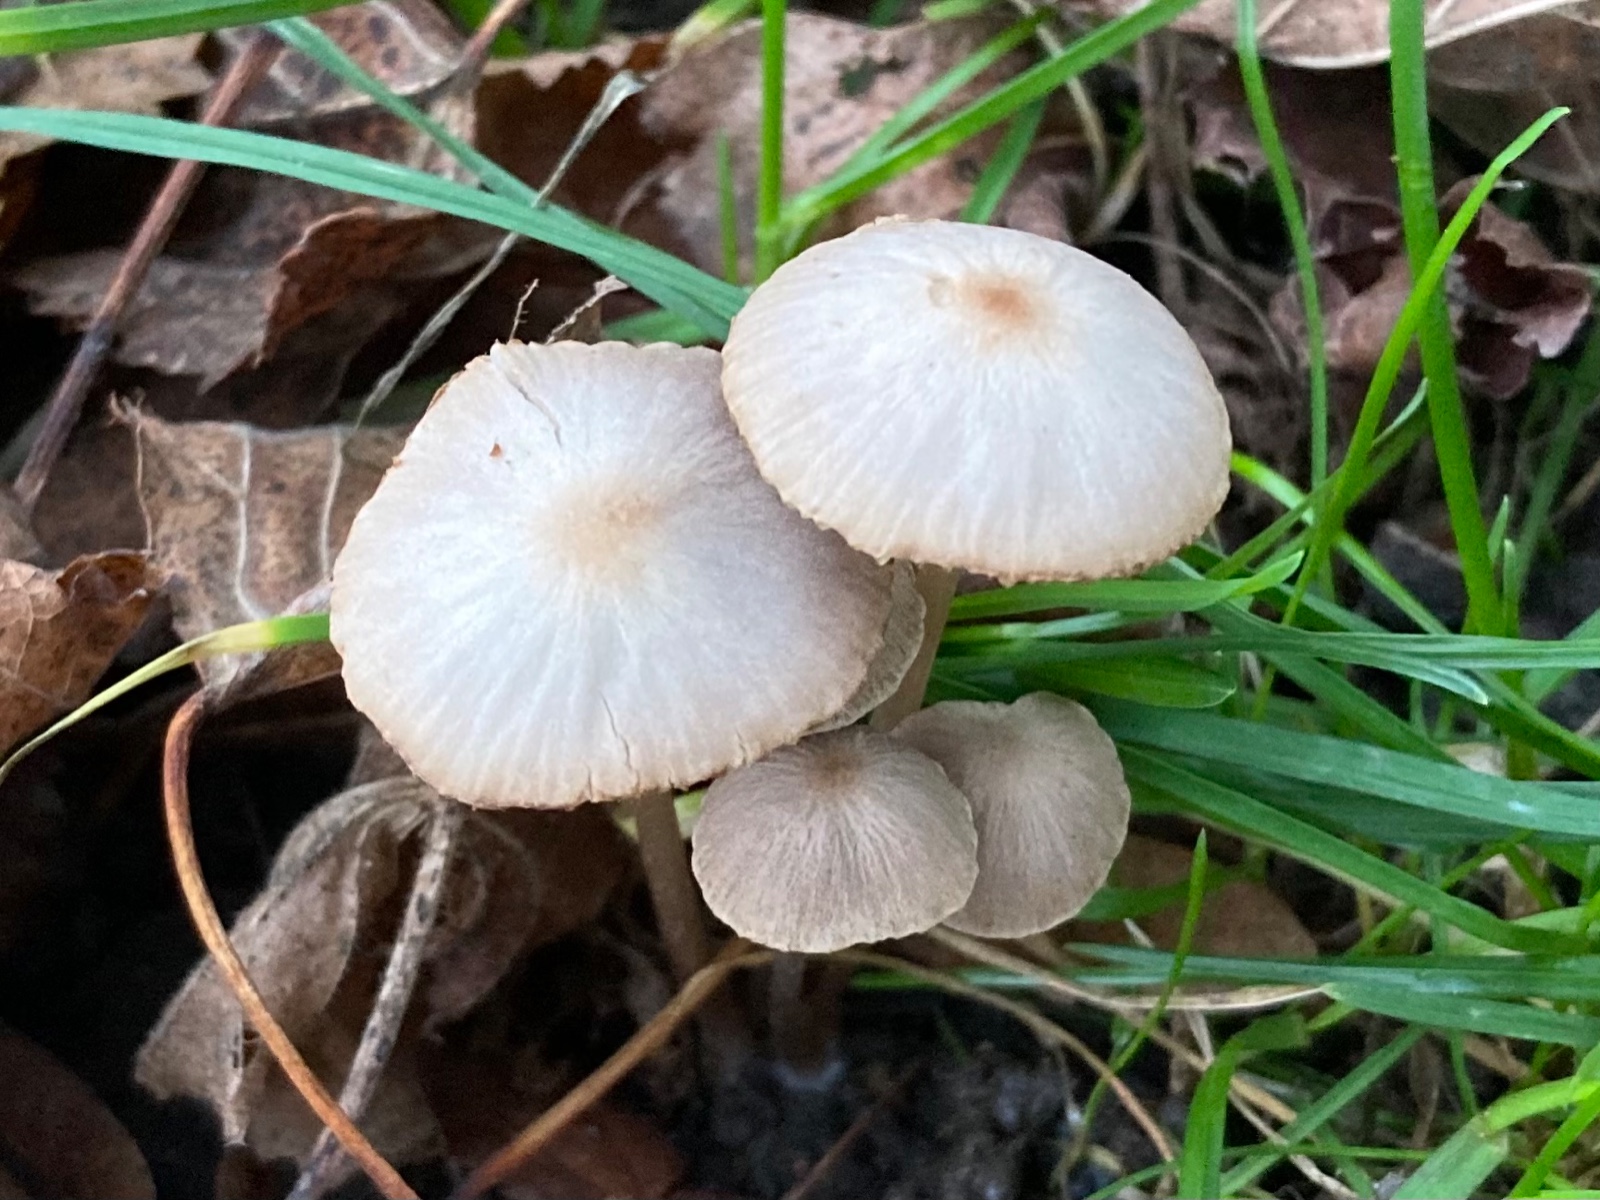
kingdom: Fungi
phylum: Basidiomycota
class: Agaricomycetes
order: Agaricales
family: Psathyrellaceae
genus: Psathyrella
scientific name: Psathyrella
